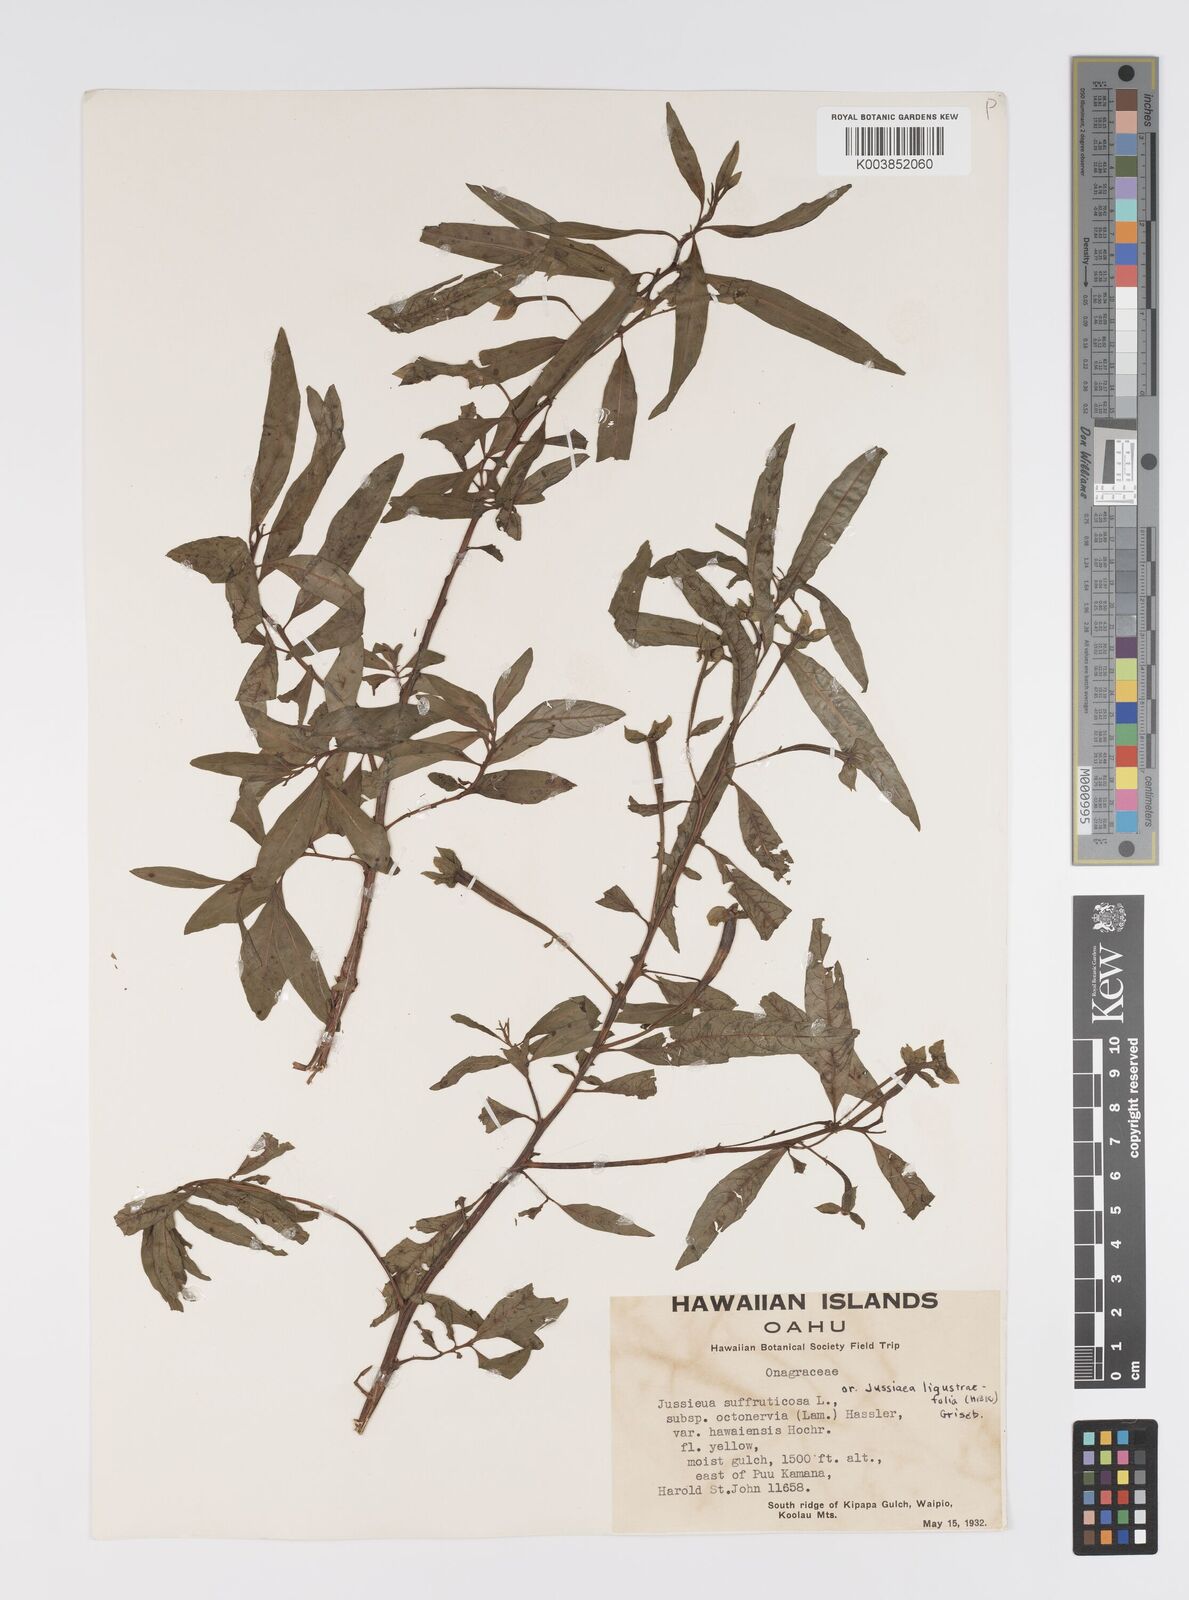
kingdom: Plantae
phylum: Tracheophyta
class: Magnoliopsida
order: Myrtales
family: Onagraceae
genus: Ludwigia
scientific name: Ludwigia octovalvis
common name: Water-primrose
